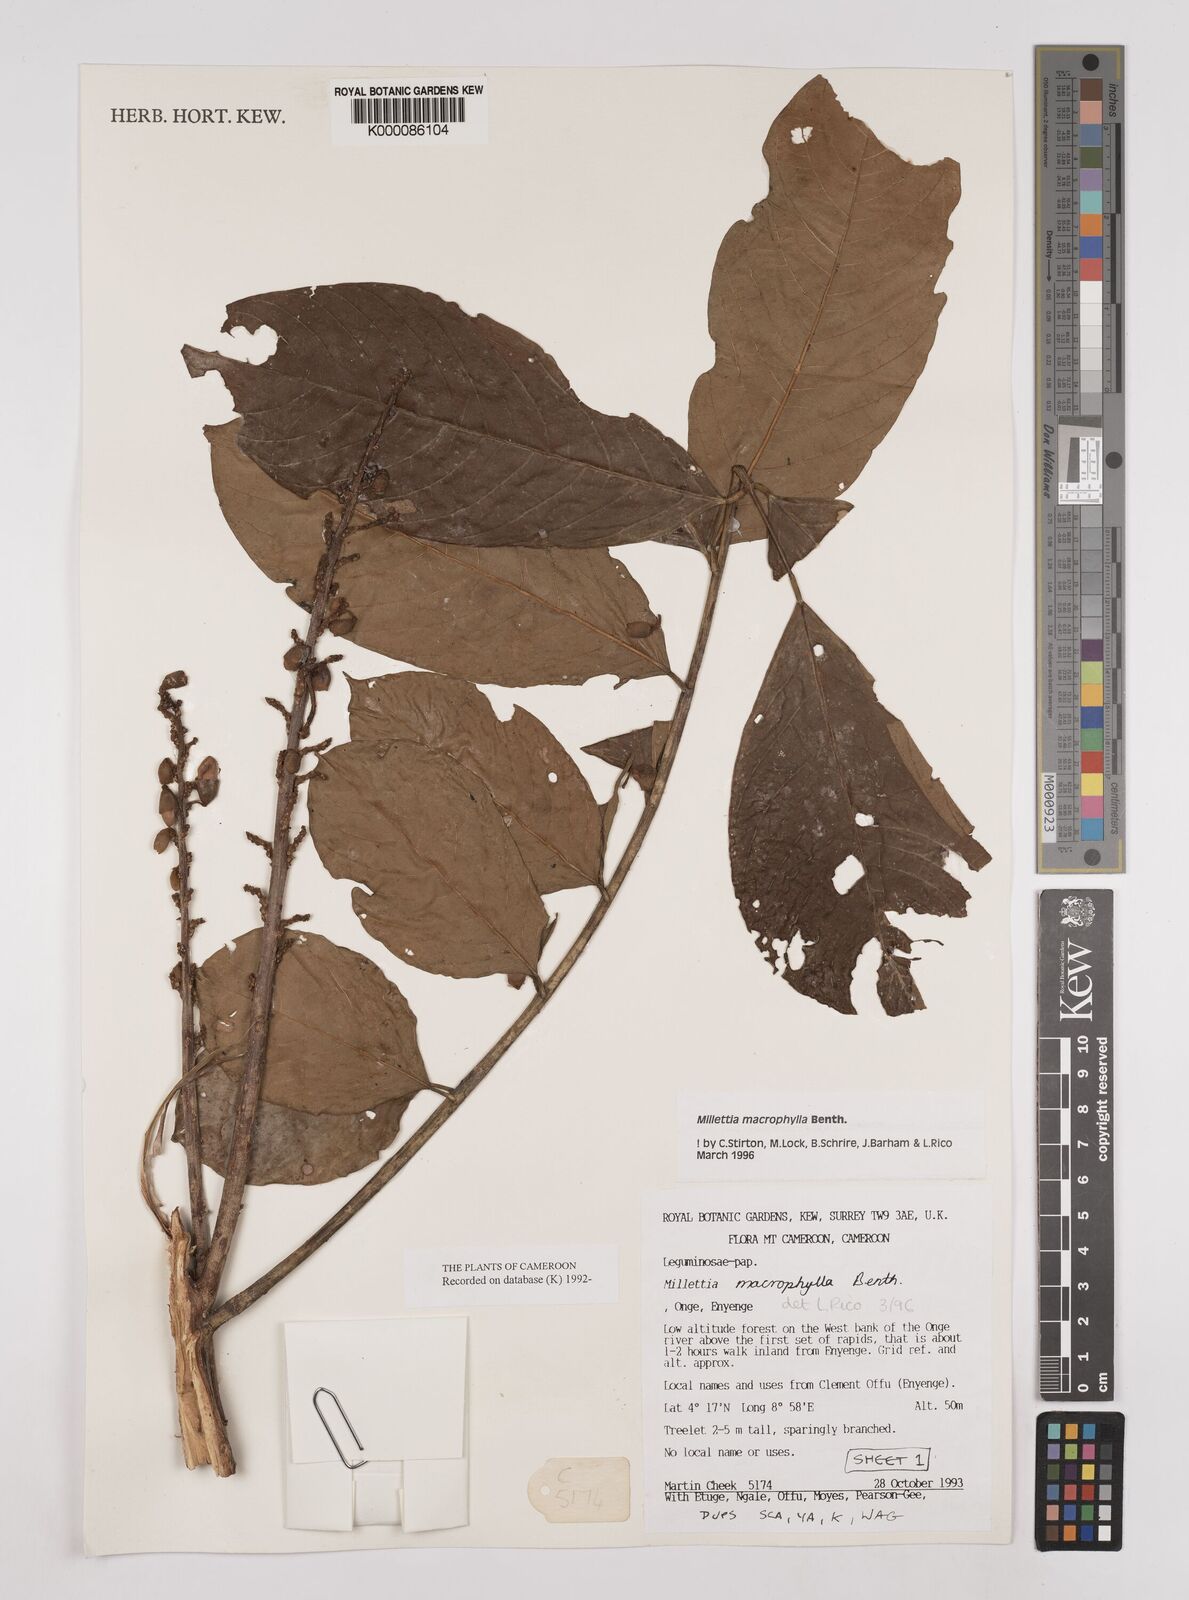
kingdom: Plantae
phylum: Tracheophyta
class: Magnoliopsida
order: Fabales
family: Fabaceae
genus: Millettia
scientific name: Millettia macrophylla
